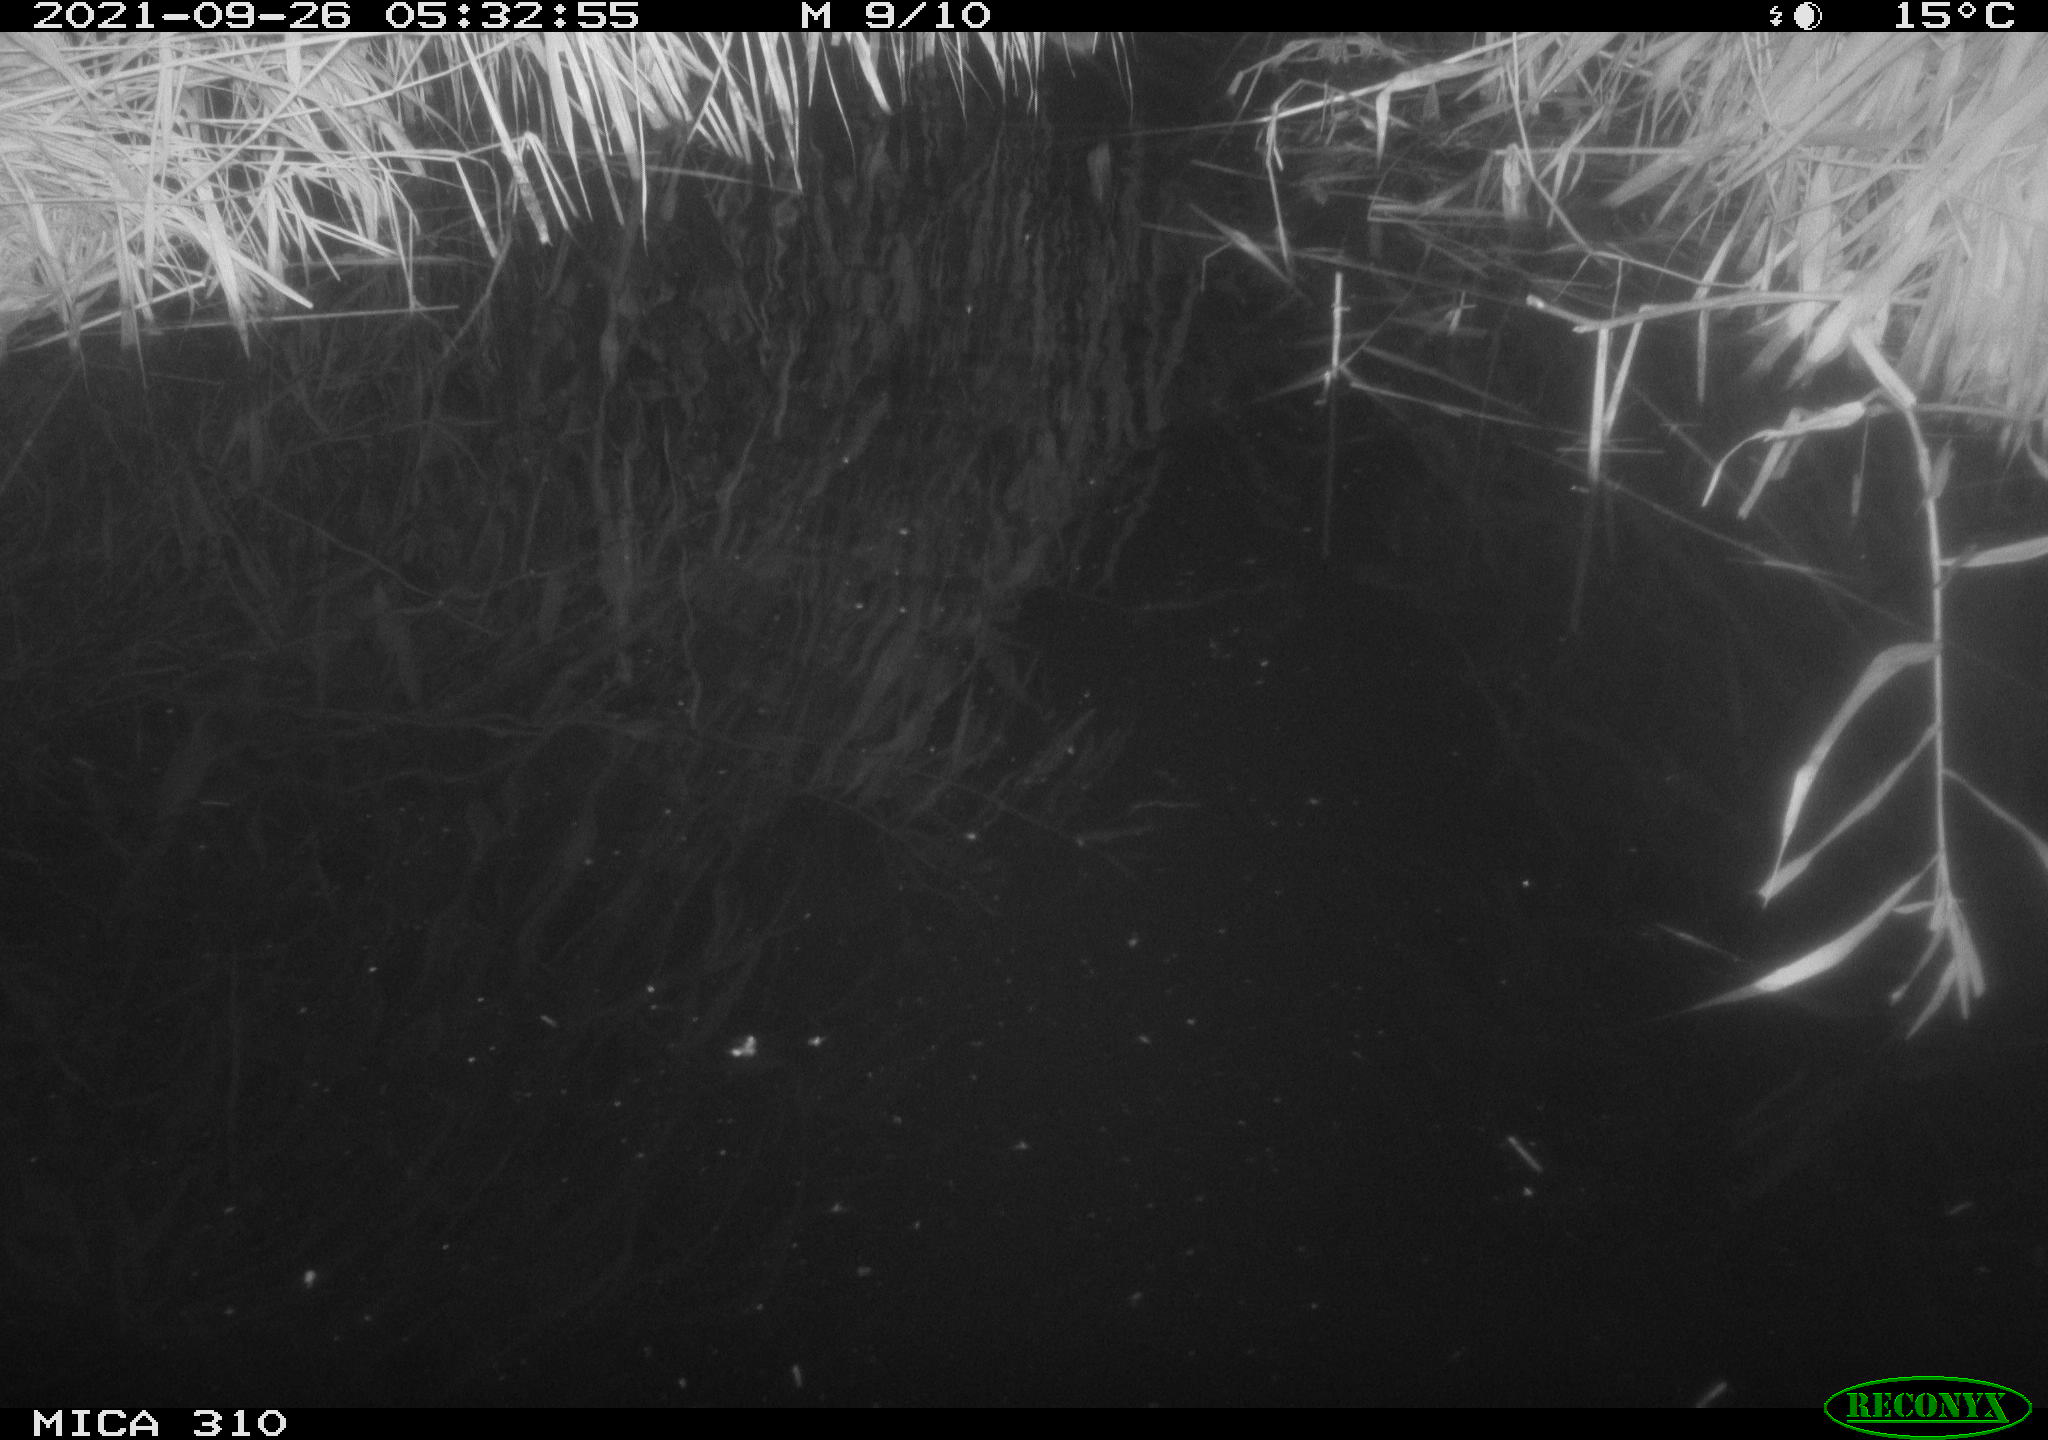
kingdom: Animalia
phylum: Chordata
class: Mammalia
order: Rodentia
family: Muridae
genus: Rattus
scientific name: Rattus norvegicus
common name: Brown rat
